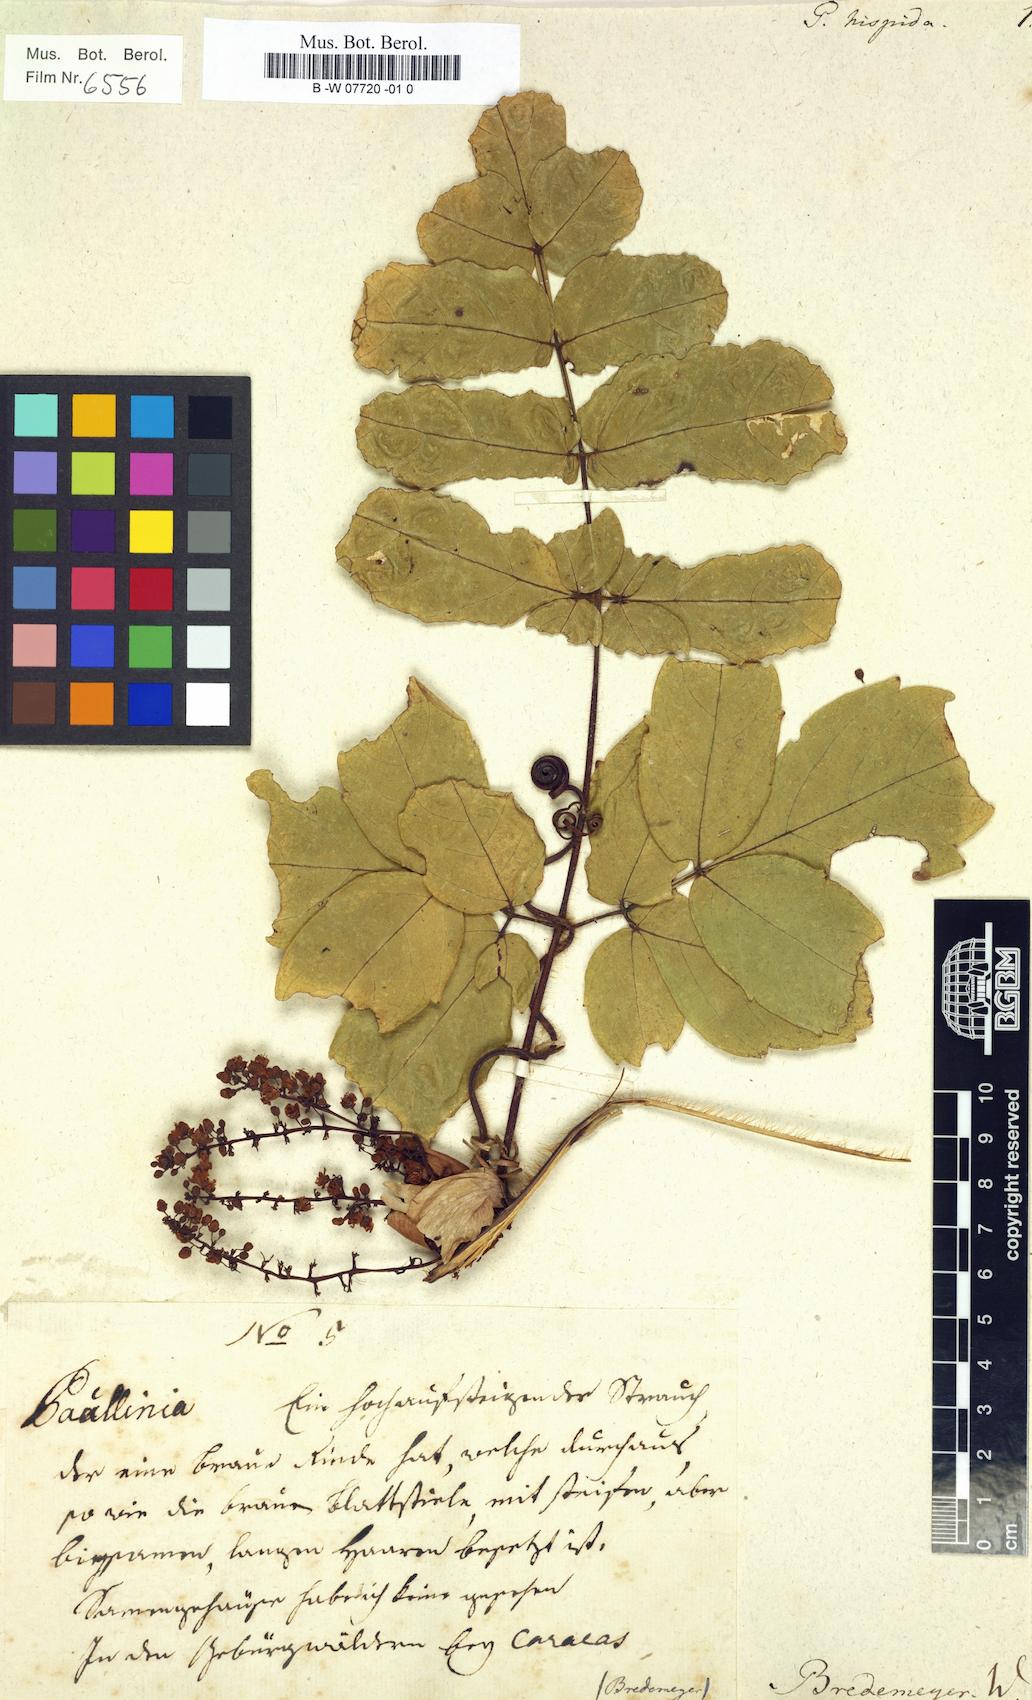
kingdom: Plantae
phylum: Tracheophyta
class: Magnoliopsida
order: Sapindales
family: Sapindaceae
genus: Paullinia
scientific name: Paullinia hispida
